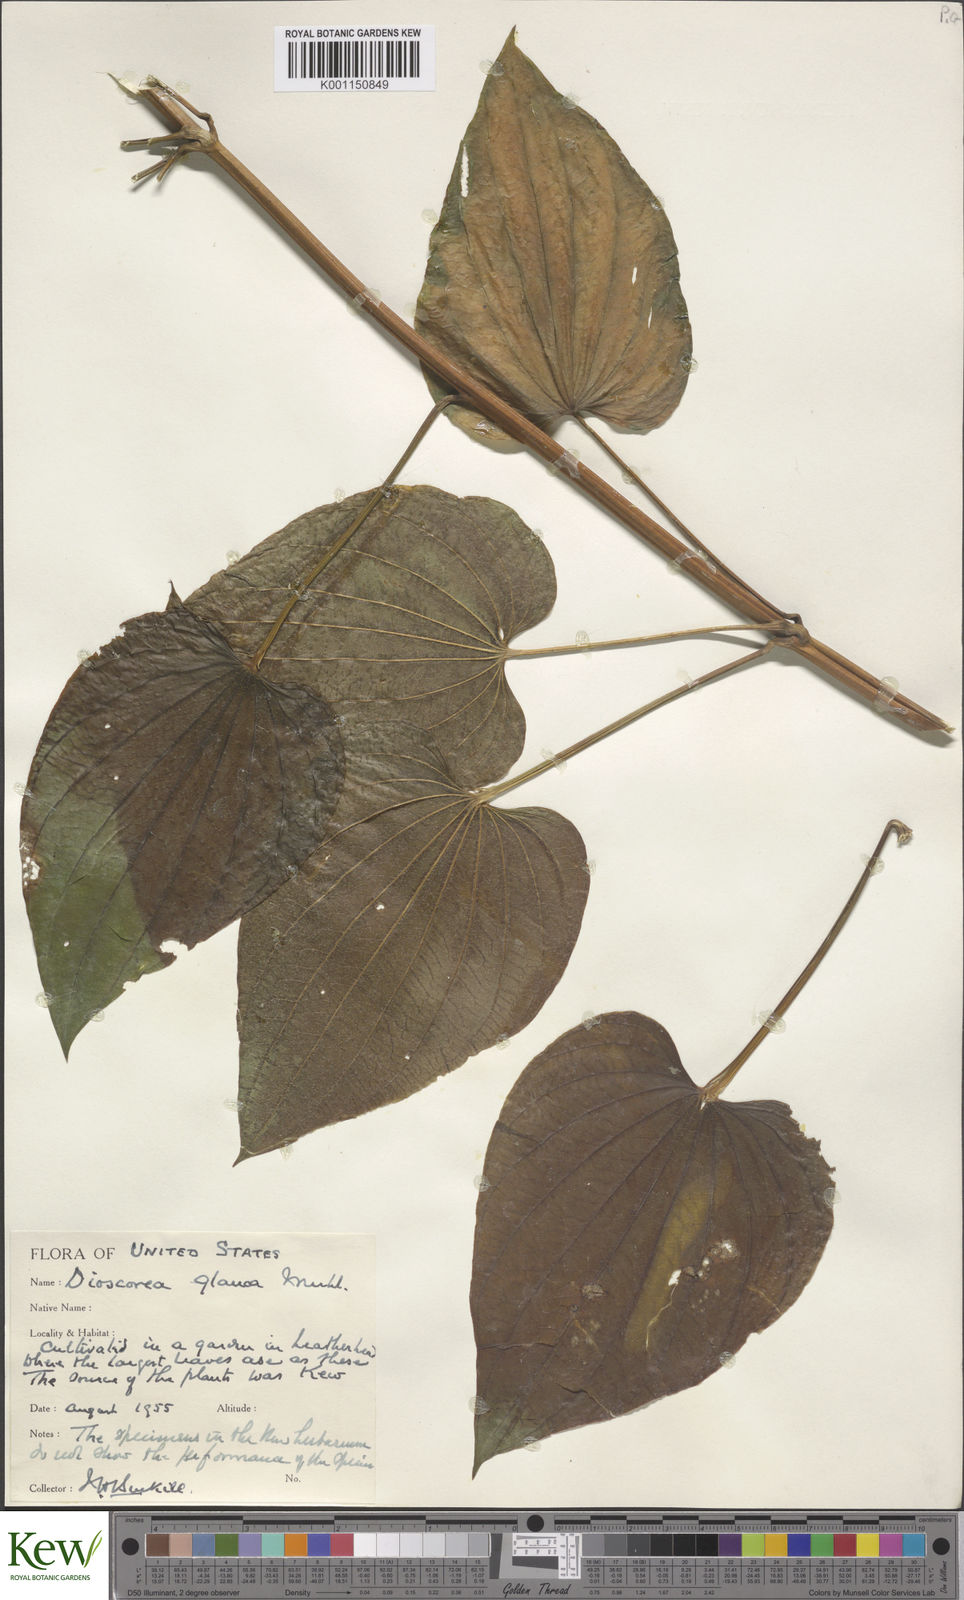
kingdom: Plantae
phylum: Tracheophyta
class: Liliopsida
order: Dioscoreales
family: Dioscoreaceae
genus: Dioscorea
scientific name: Dioscorea villosa
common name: Wild yam
